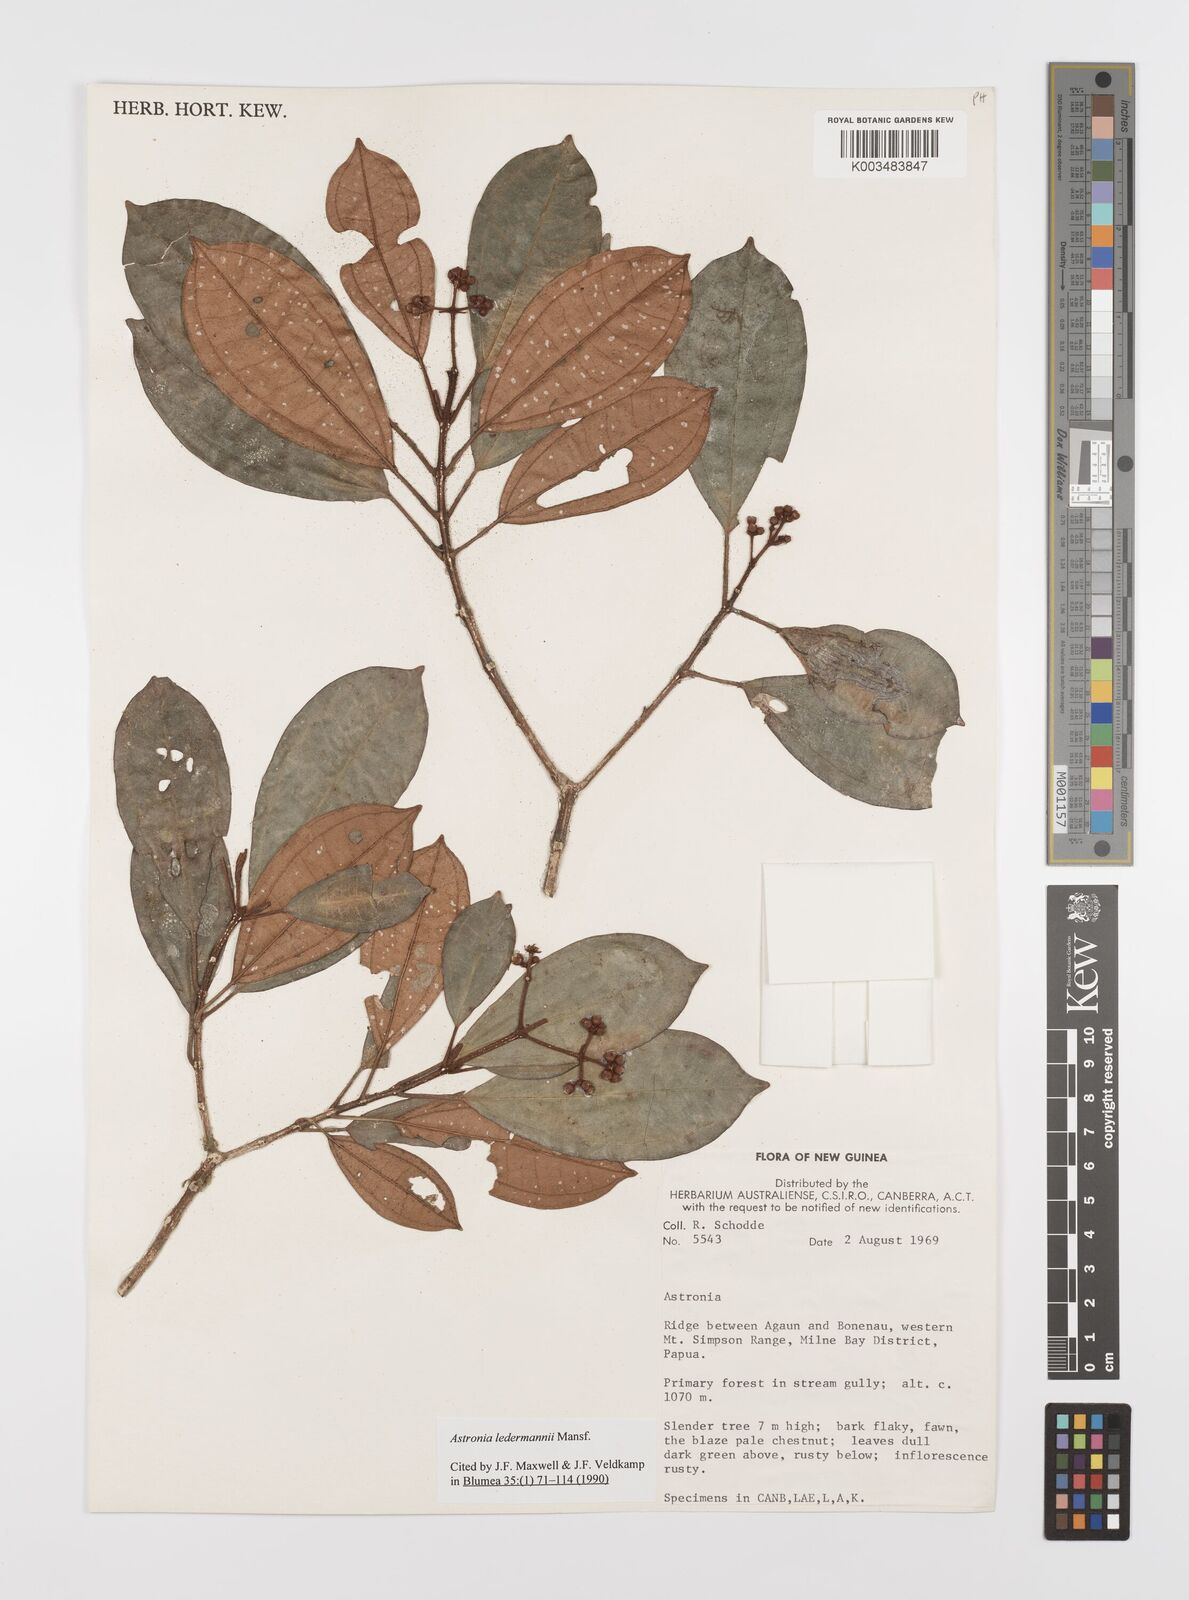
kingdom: Plantae
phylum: Tracheophyta
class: Magnoliopsida
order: Myrtales
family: Melastomataceae
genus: Astronia
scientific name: Astronia ledermannii
